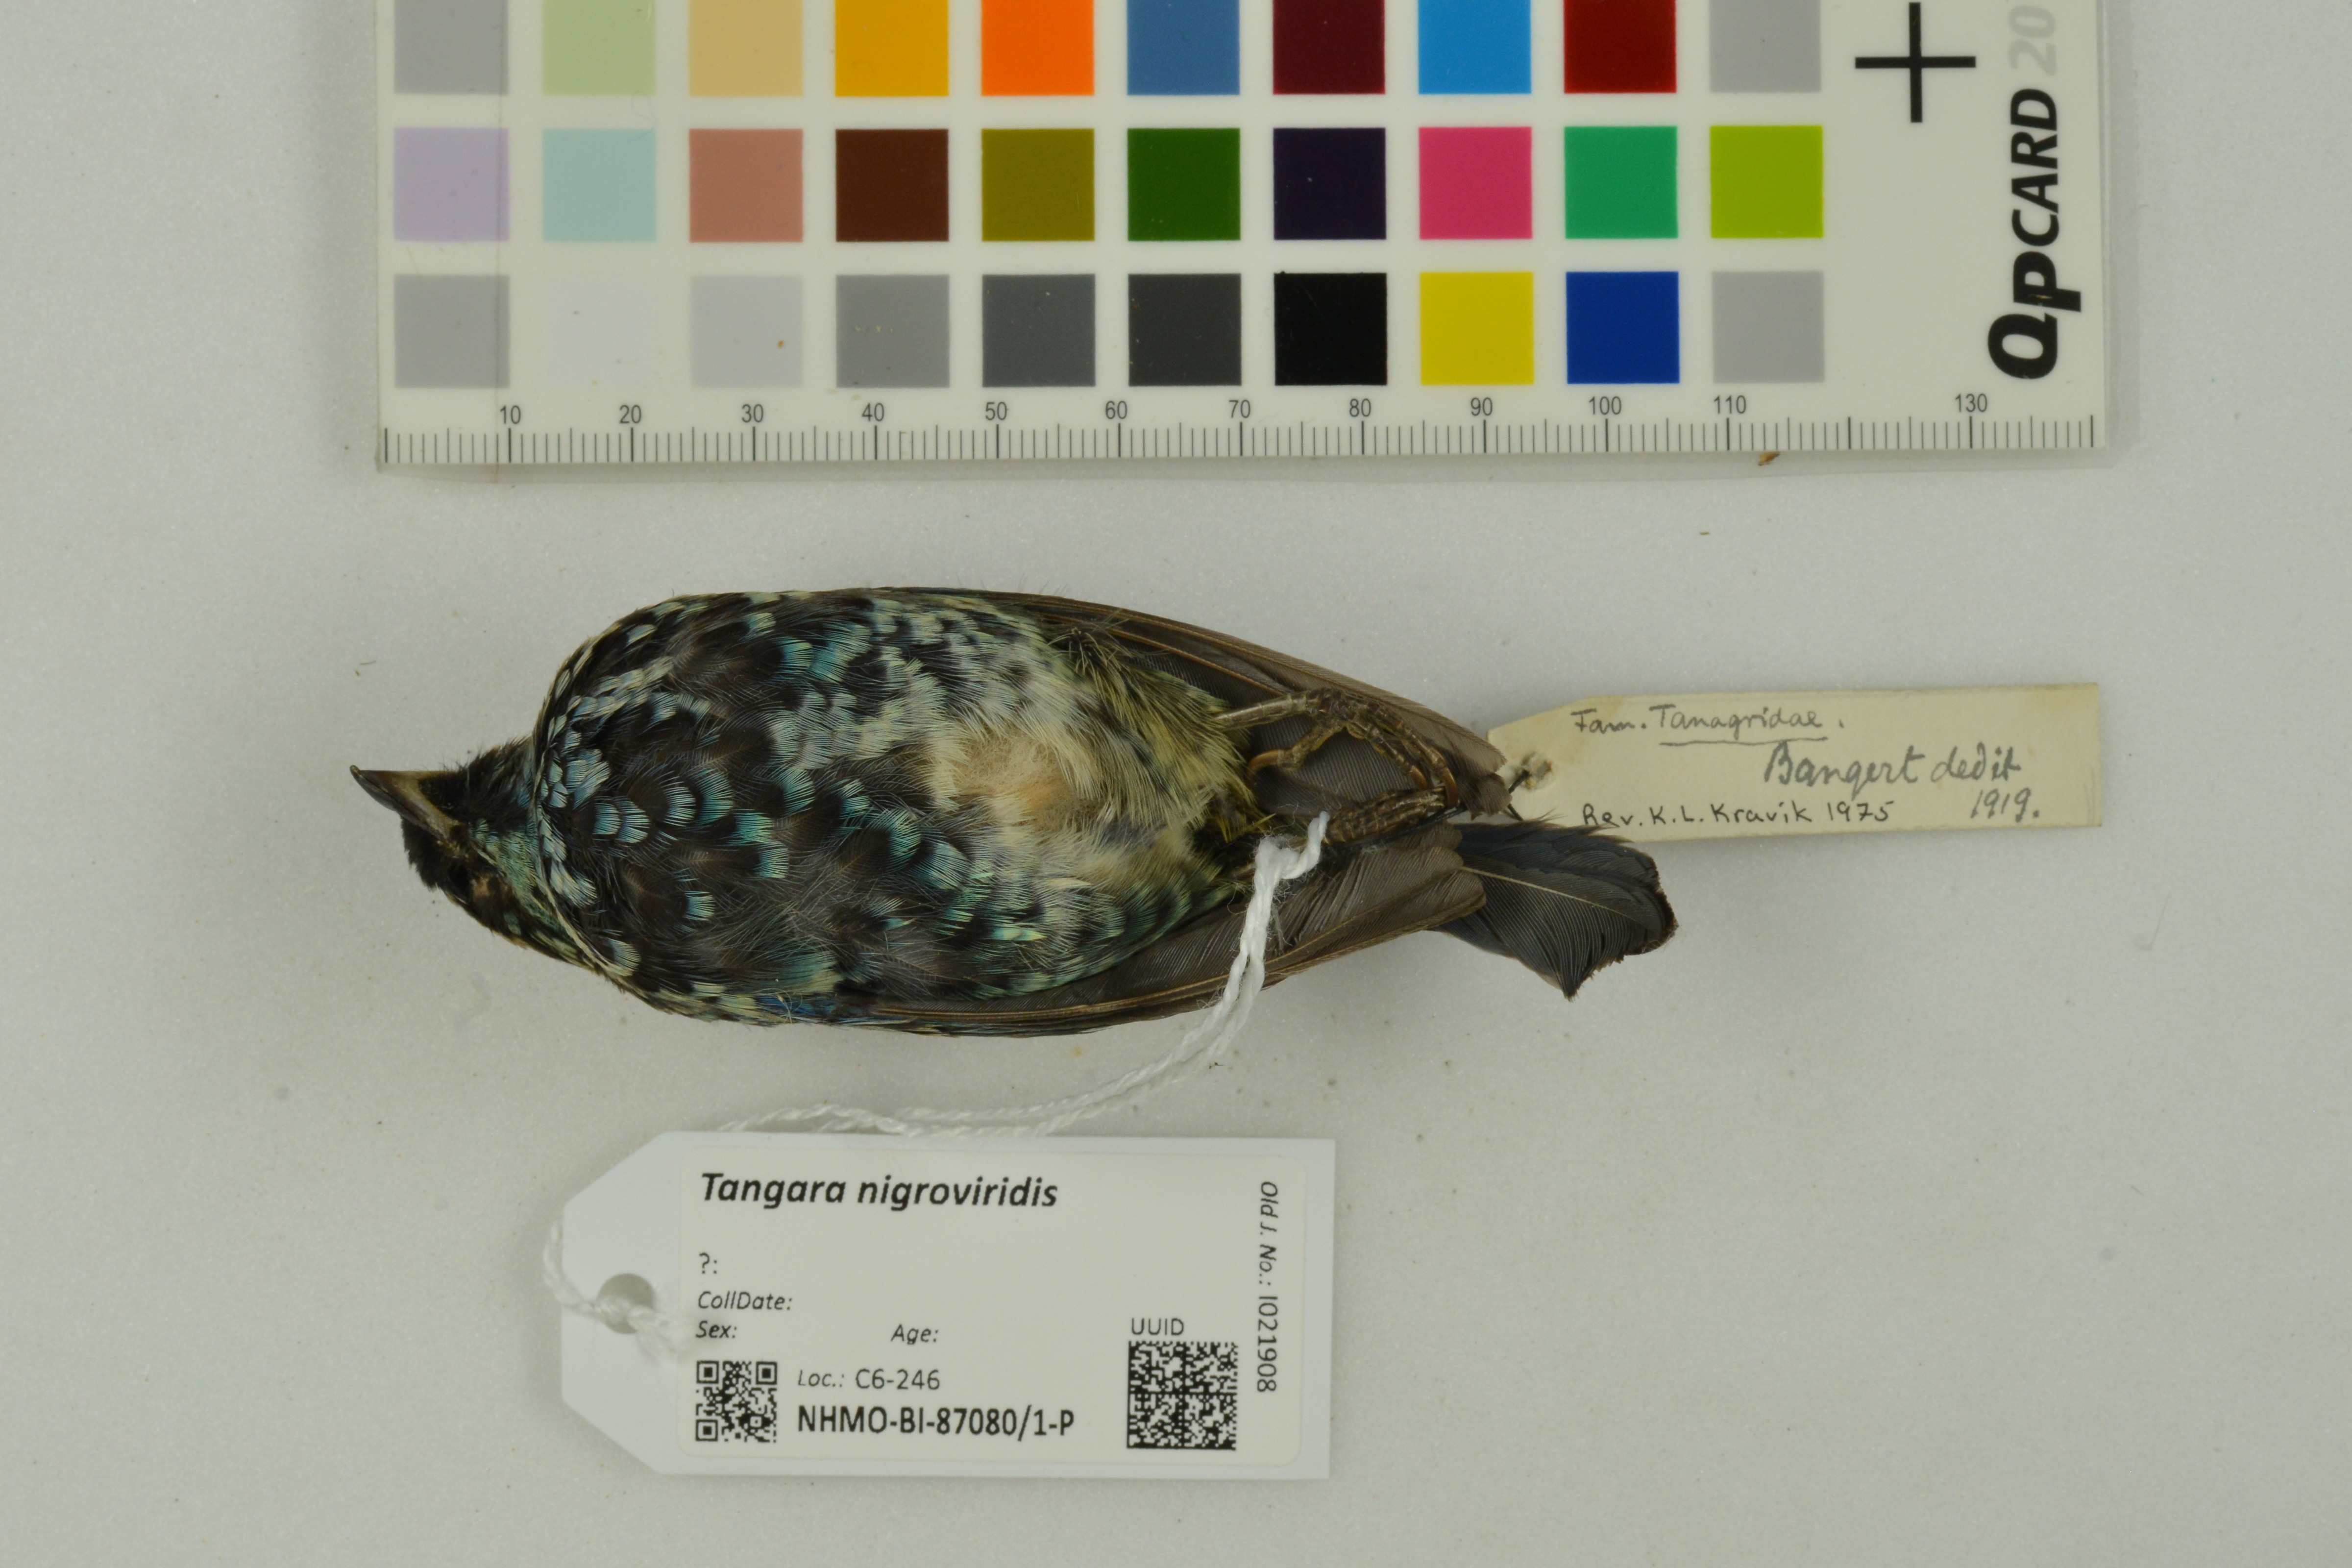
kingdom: Animalia
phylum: Chordata
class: Aves
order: Passeriformes
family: Thraupidae
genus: Tangara
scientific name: Tangara nigroviridis
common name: Beryl-spangled tanager
